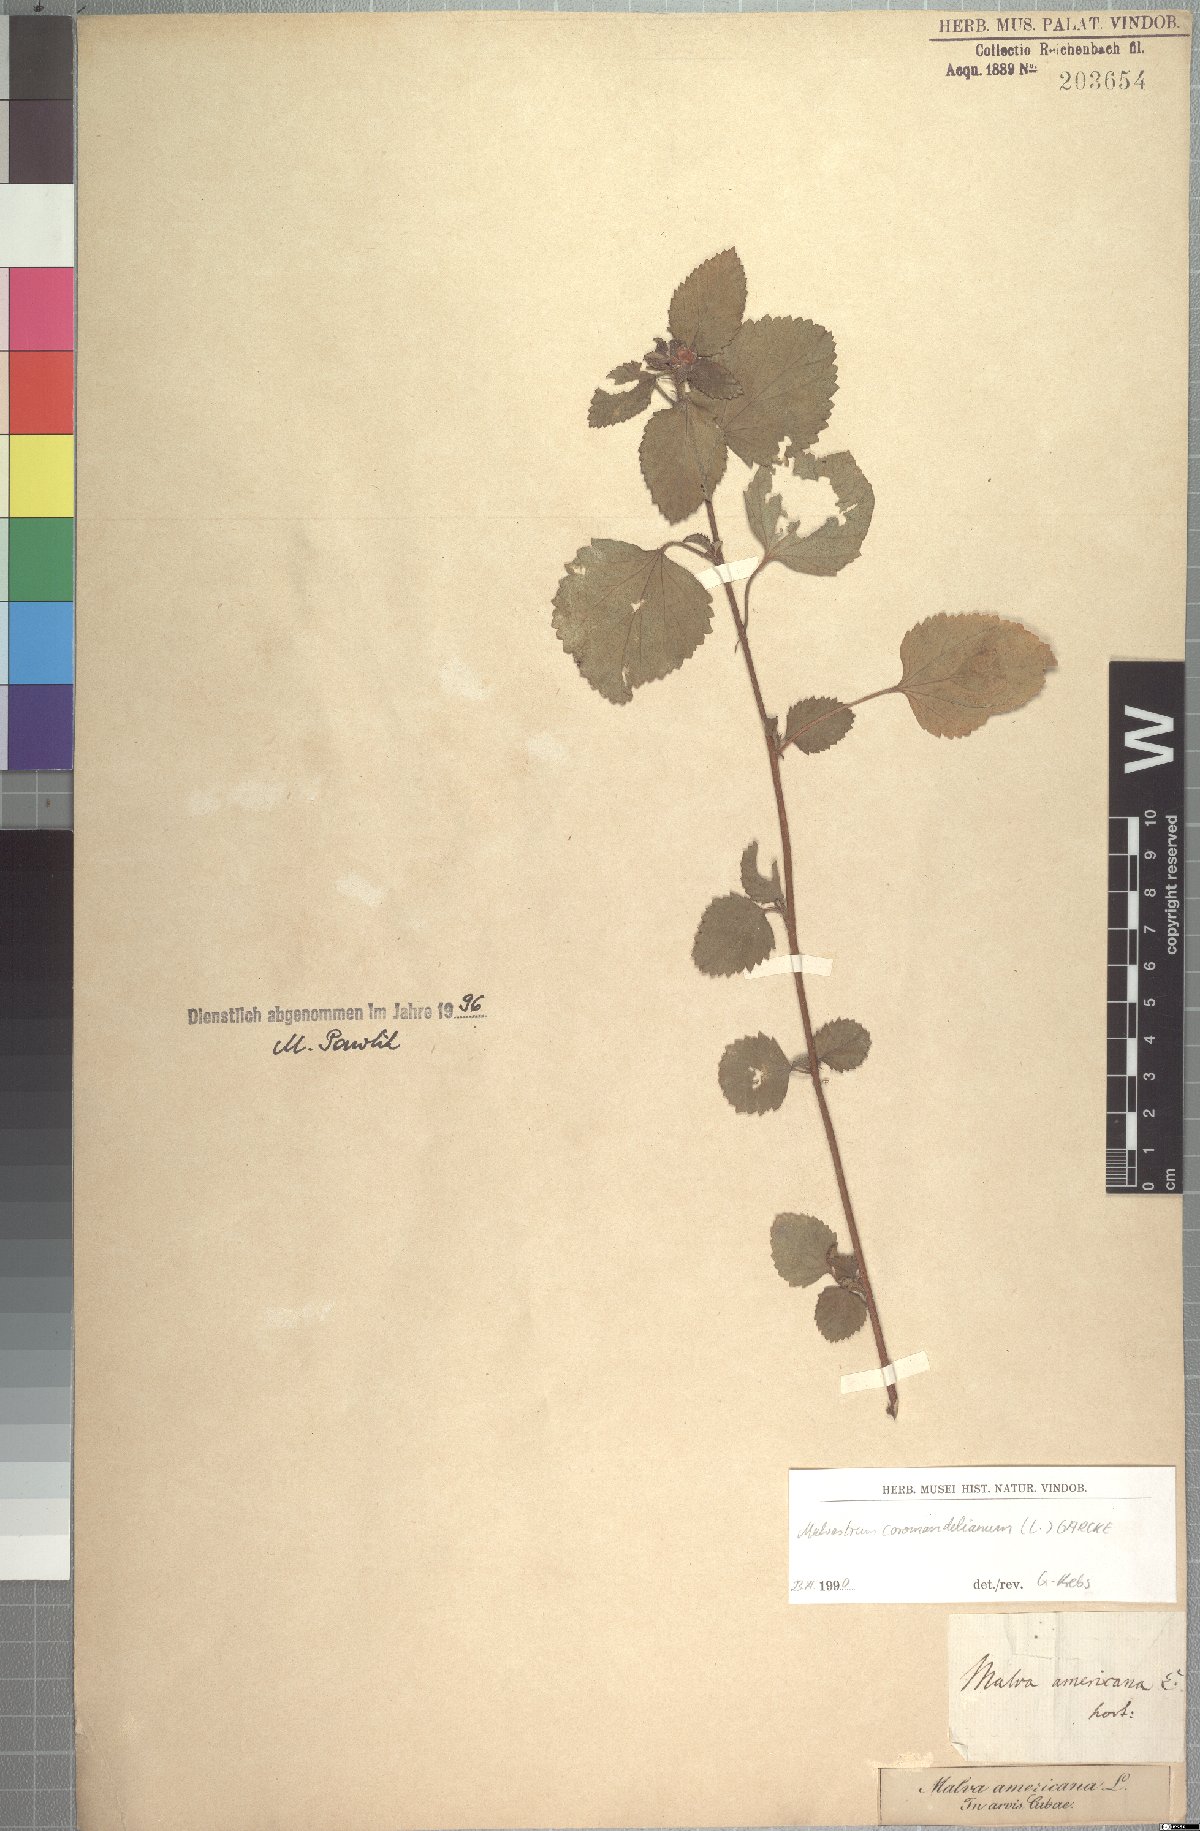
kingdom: Plantae
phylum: Tracheophyta
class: Magnoliopsida
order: Malvales
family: Malvaceae
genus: Malvastrum
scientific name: Malvastrum coromandelianum
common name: Threelobe false mallow
